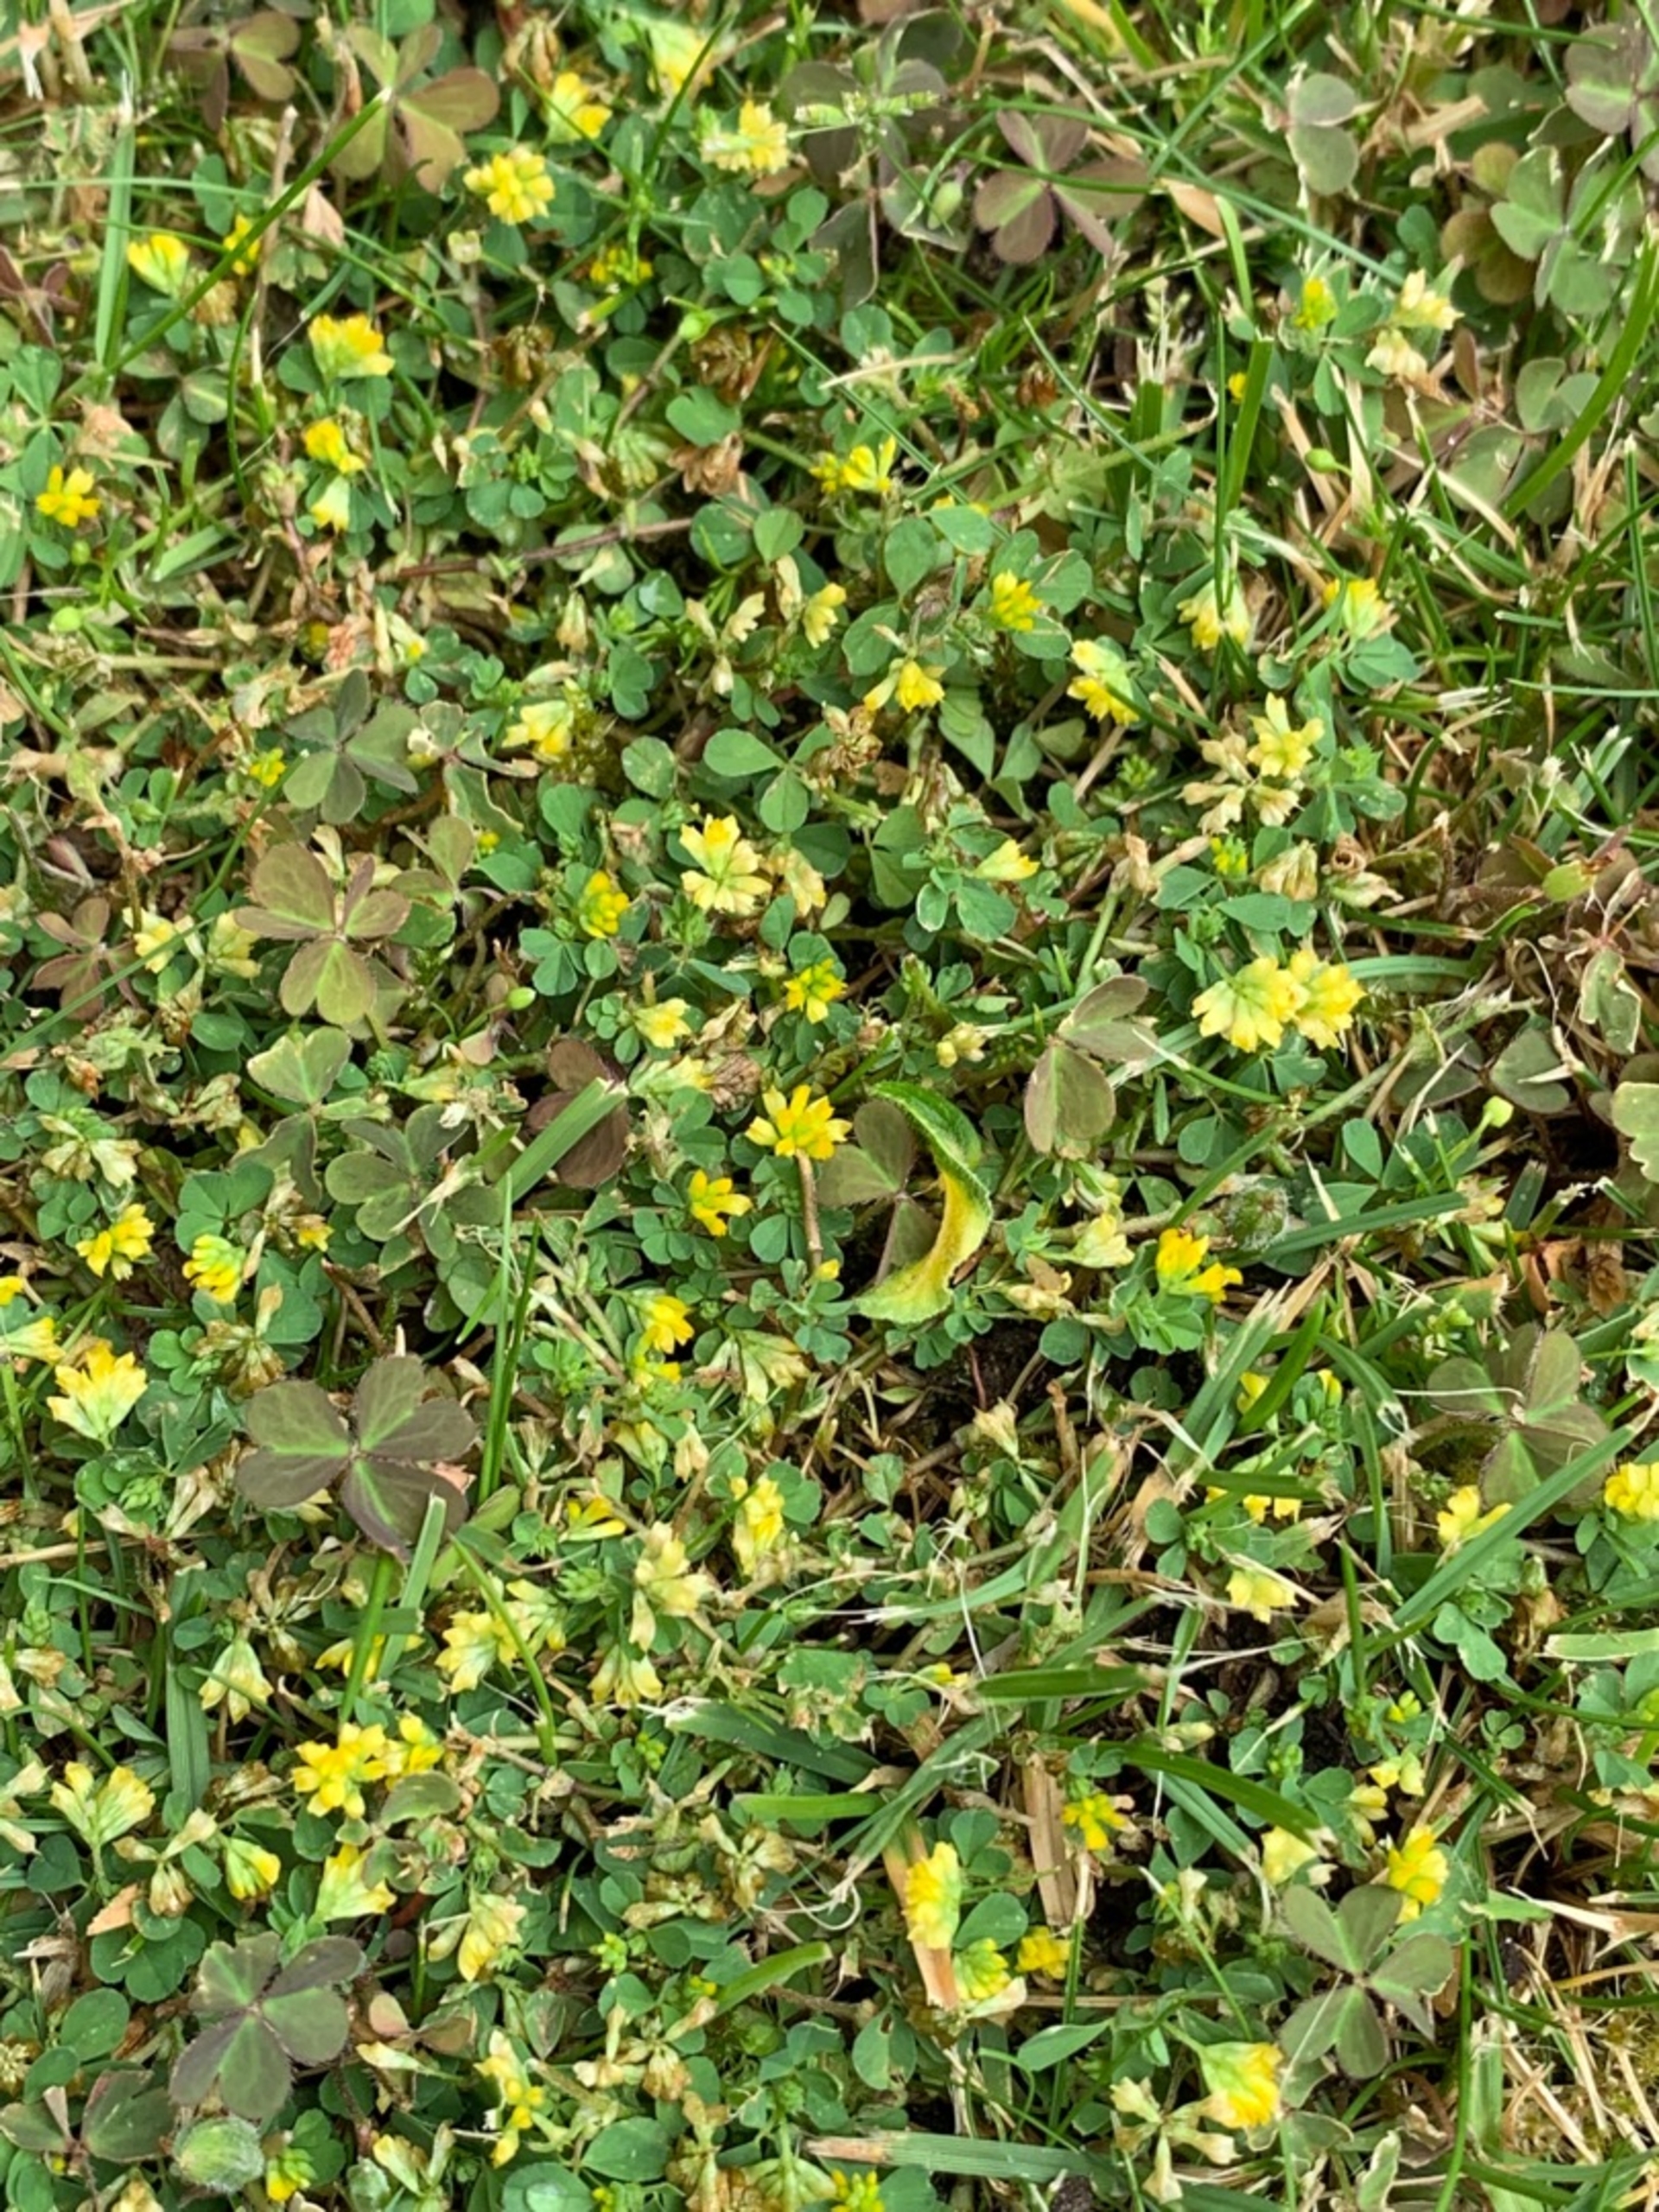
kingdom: Plantae
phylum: Tracheophyta
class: Magnoliopsida
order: Fabales
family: Fabaceae
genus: Trifolium
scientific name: Trifolium dubium
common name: Fin kløver
